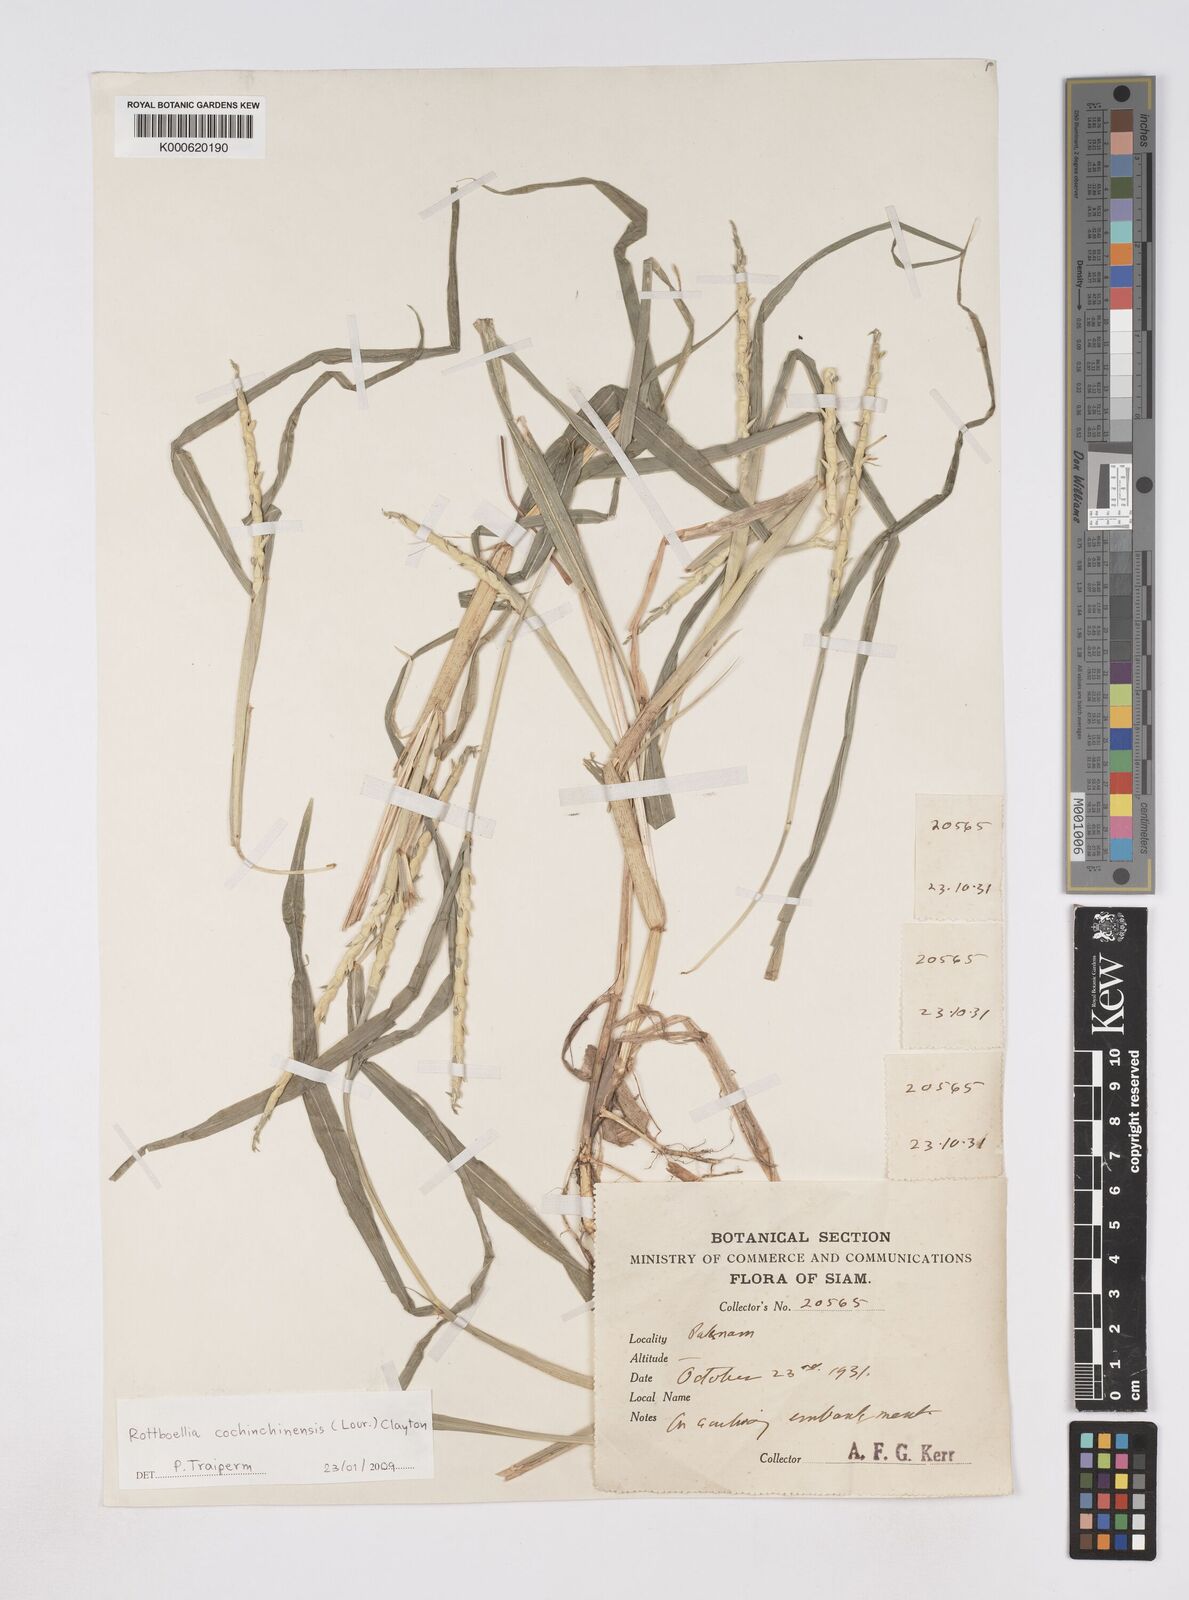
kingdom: Plantae
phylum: Tracheophyta
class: Liliopsida
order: Poales
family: Poaceae
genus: Rottboellia
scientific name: Rottboellia cochinchinensis
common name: Itchgrass
